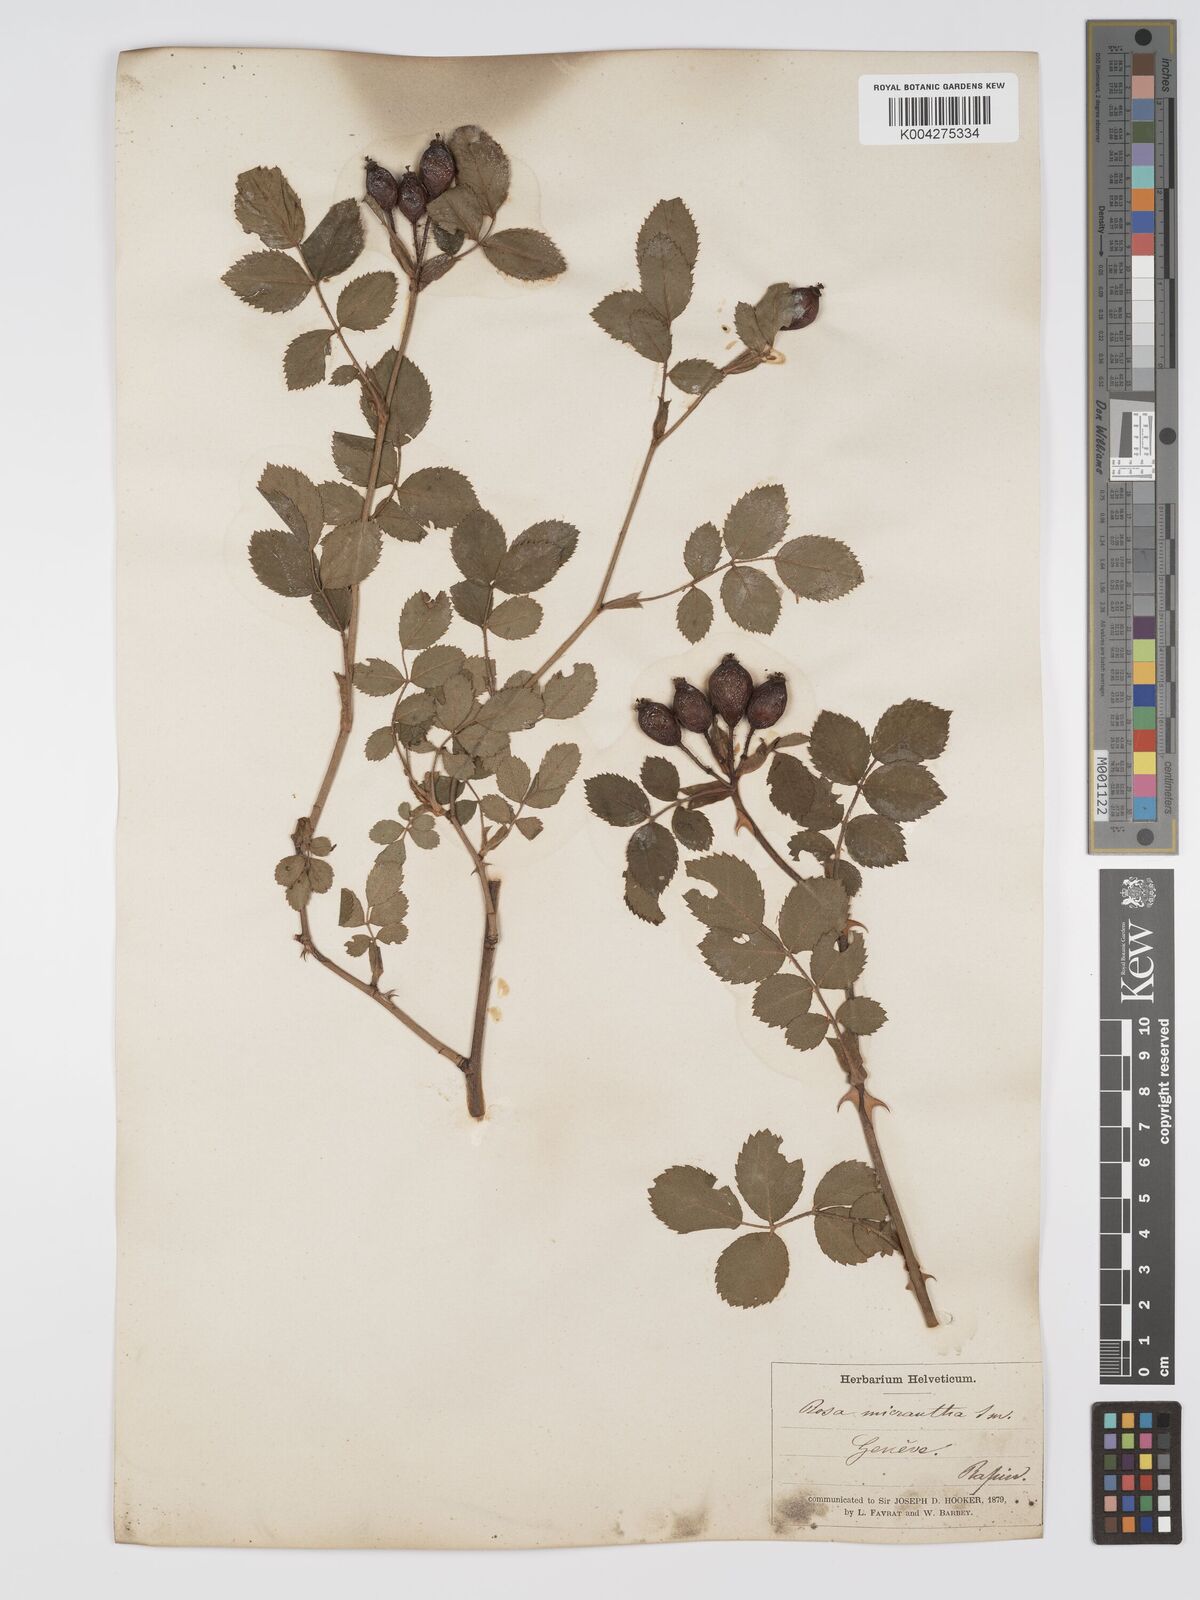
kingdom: Plantae
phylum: Tracheophyta
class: Magnoliopsida
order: Rosales
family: Rosaceae
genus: Rosa
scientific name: Rosa
